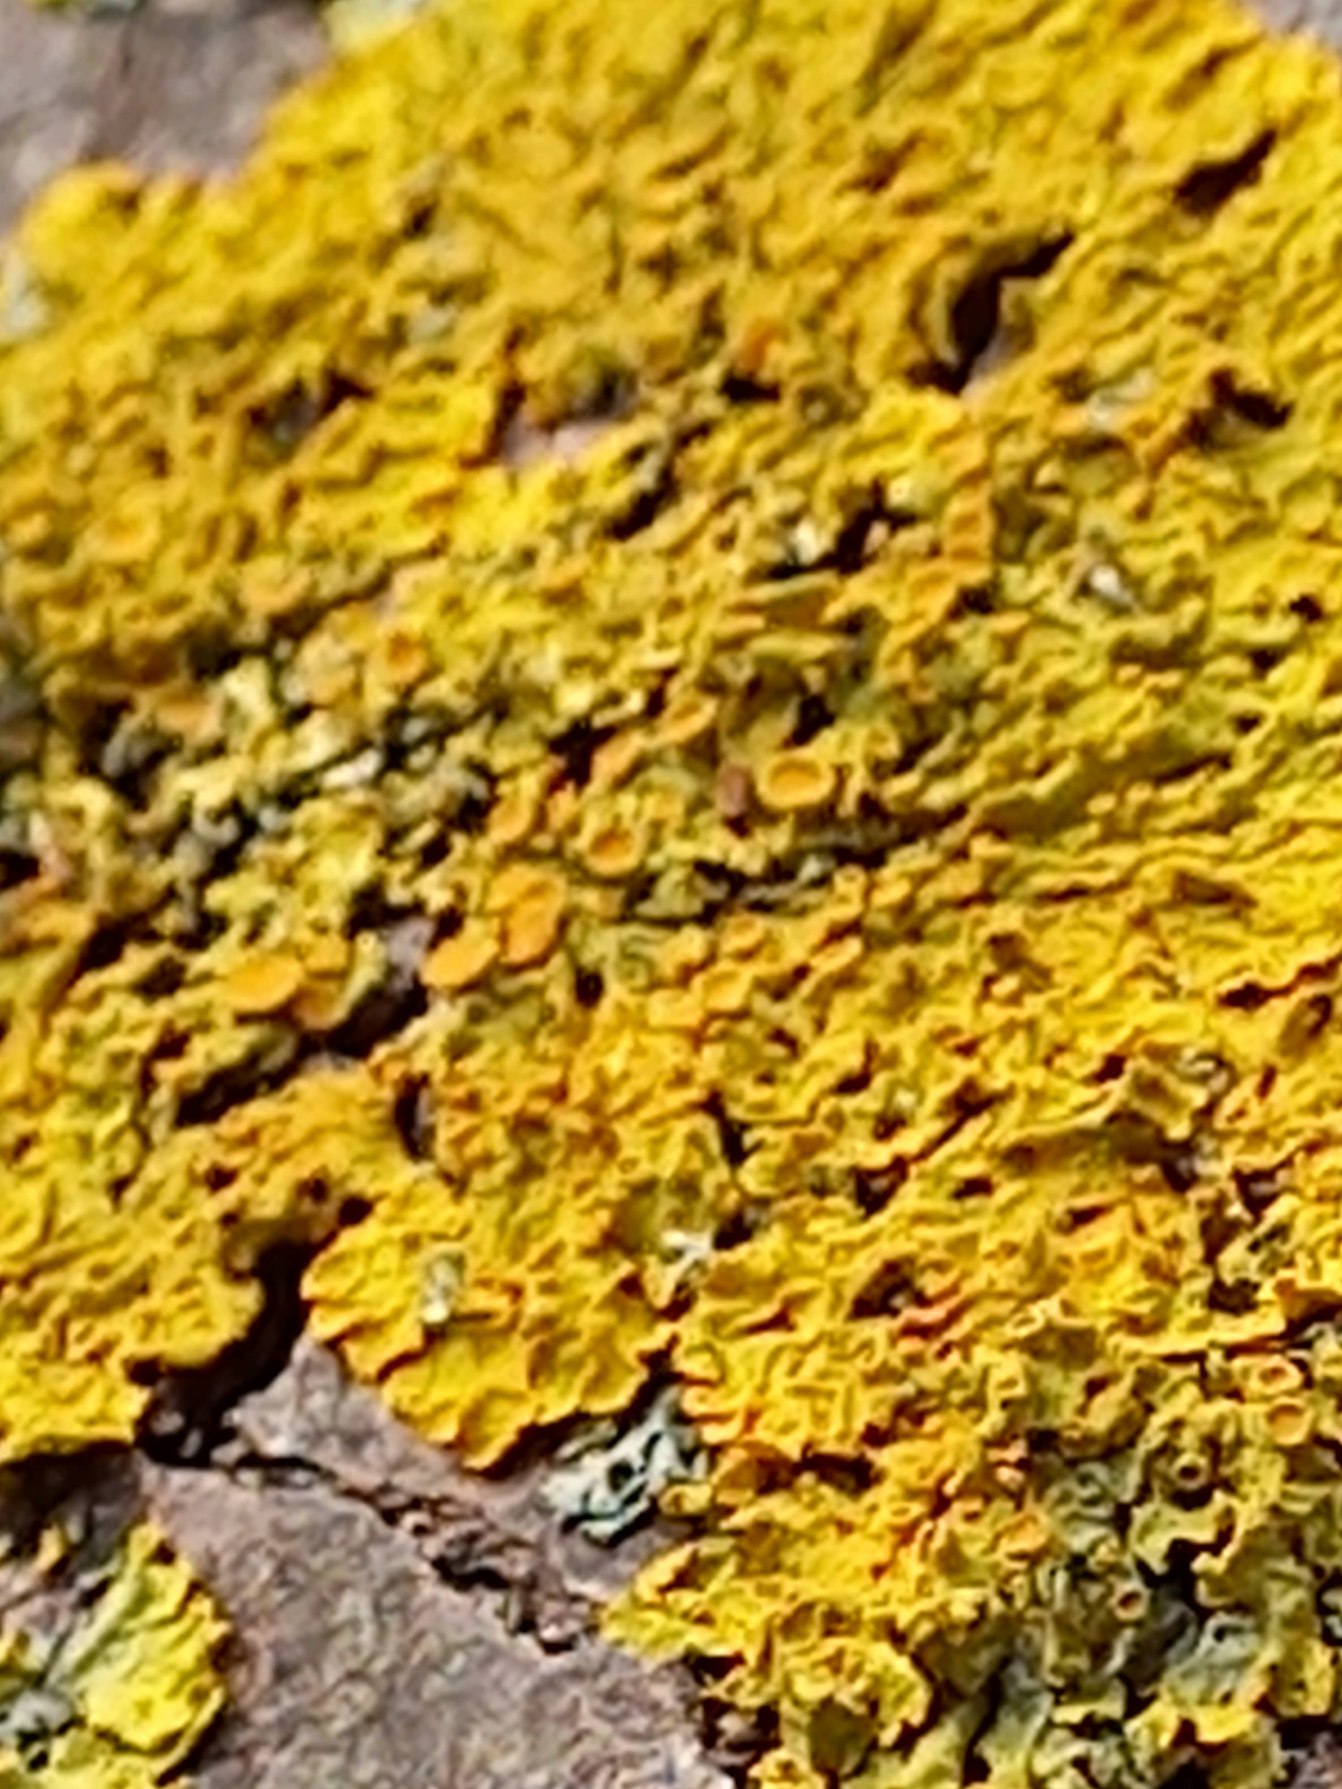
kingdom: Fungi
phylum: Ascomycota
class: Lecanoromycetes
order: Teloschistales
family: Teloschistaceae
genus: Xanthoria
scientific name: Xanthoria parietina
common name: Almindelig væggelav
